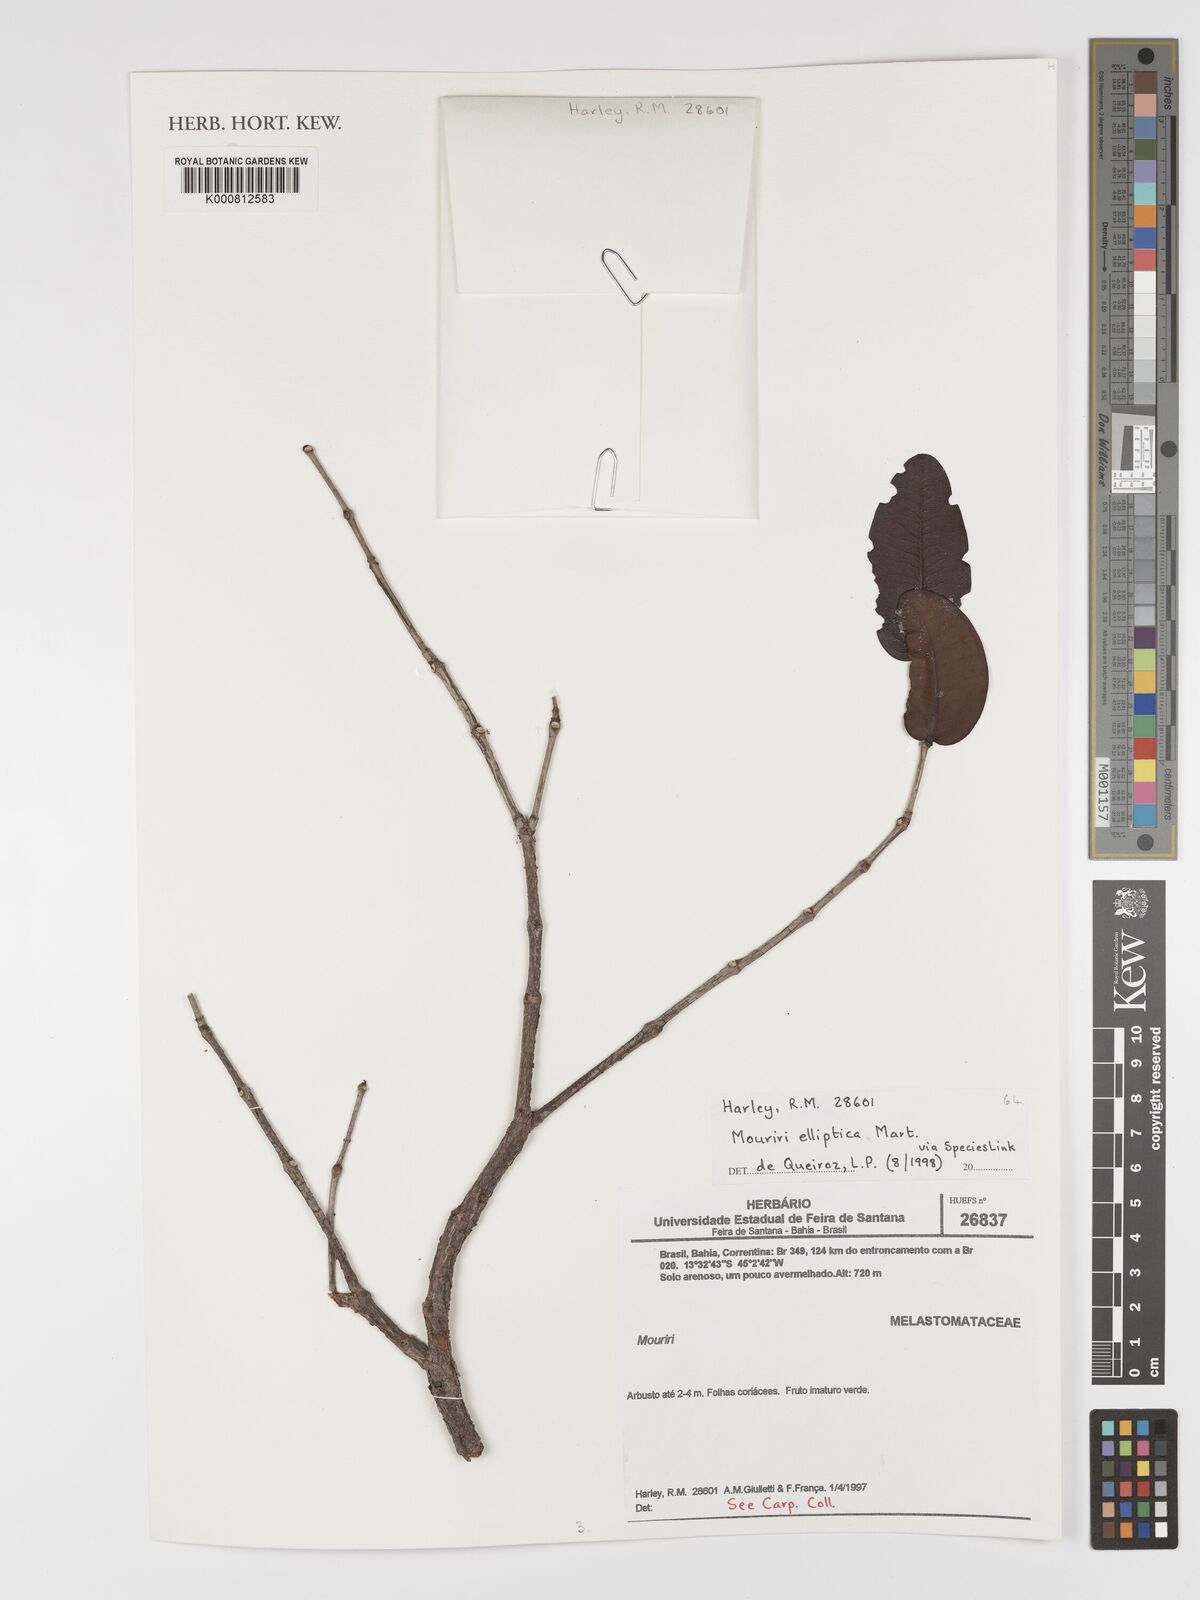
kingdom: Plantae
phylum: Tracheophyta
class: Magnoliopsida
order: Myrtales
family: Melastomataceae
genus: Mouriri
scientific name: Mouriri elliptica
